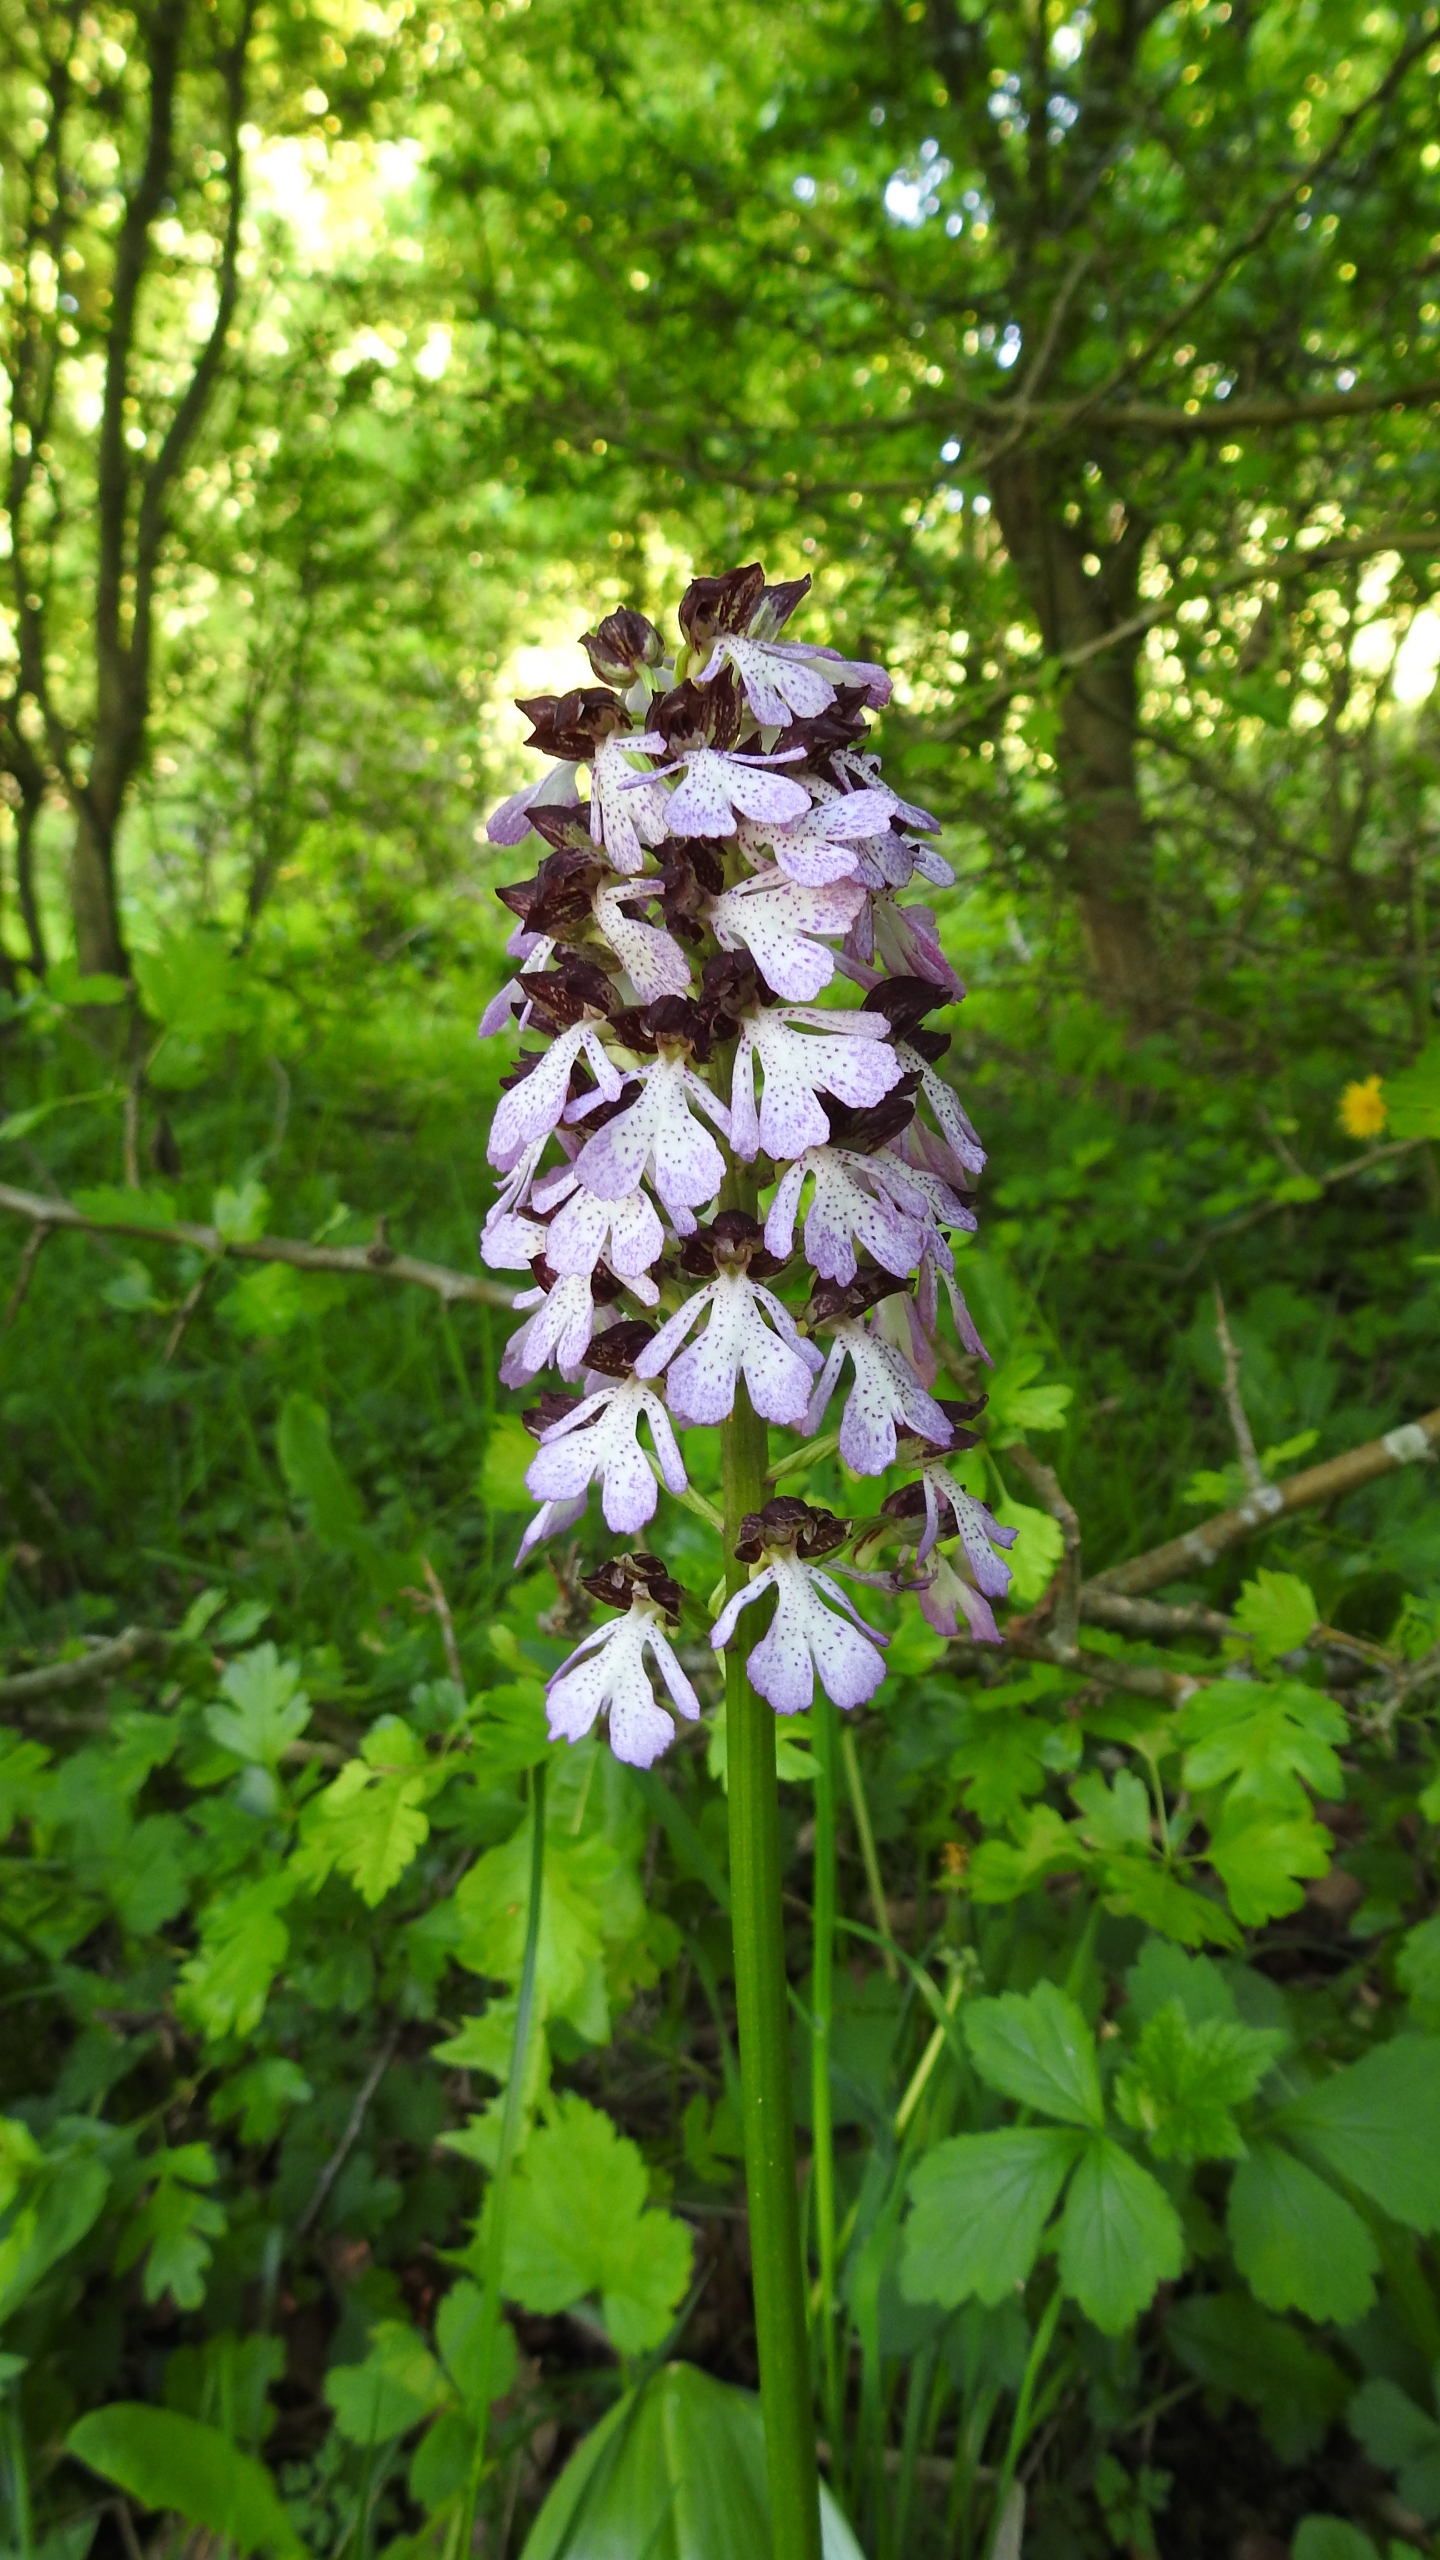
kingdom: Plantae
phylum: Tracheophyta
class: Liliopsida
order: Asparagales
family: Orchidaceae
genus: Orchis
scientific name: Orchis purpurea
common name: Stor gøgeurt
